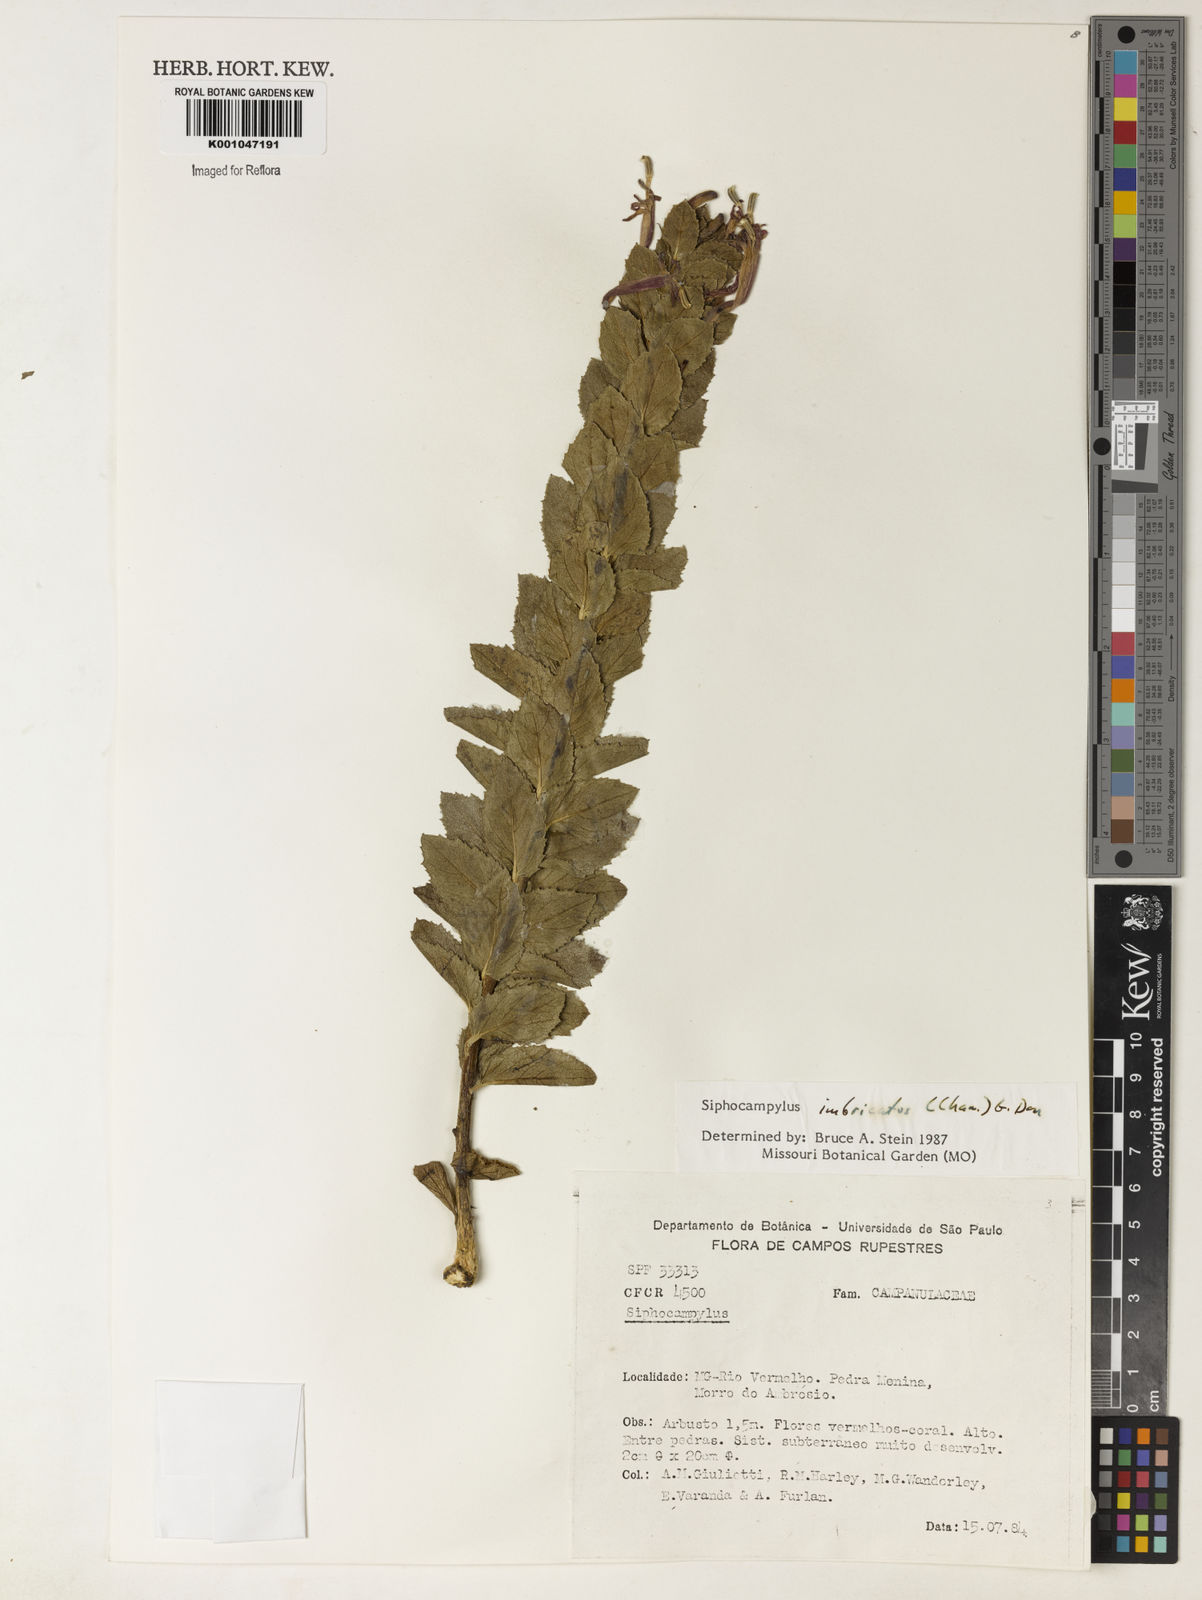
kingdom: Plantae
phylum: Tracheophyta
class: Magnoliopsida
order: Asterales
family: Campanulaceae
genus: Siphocampylus
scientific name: Siphocampylus imbricatus
